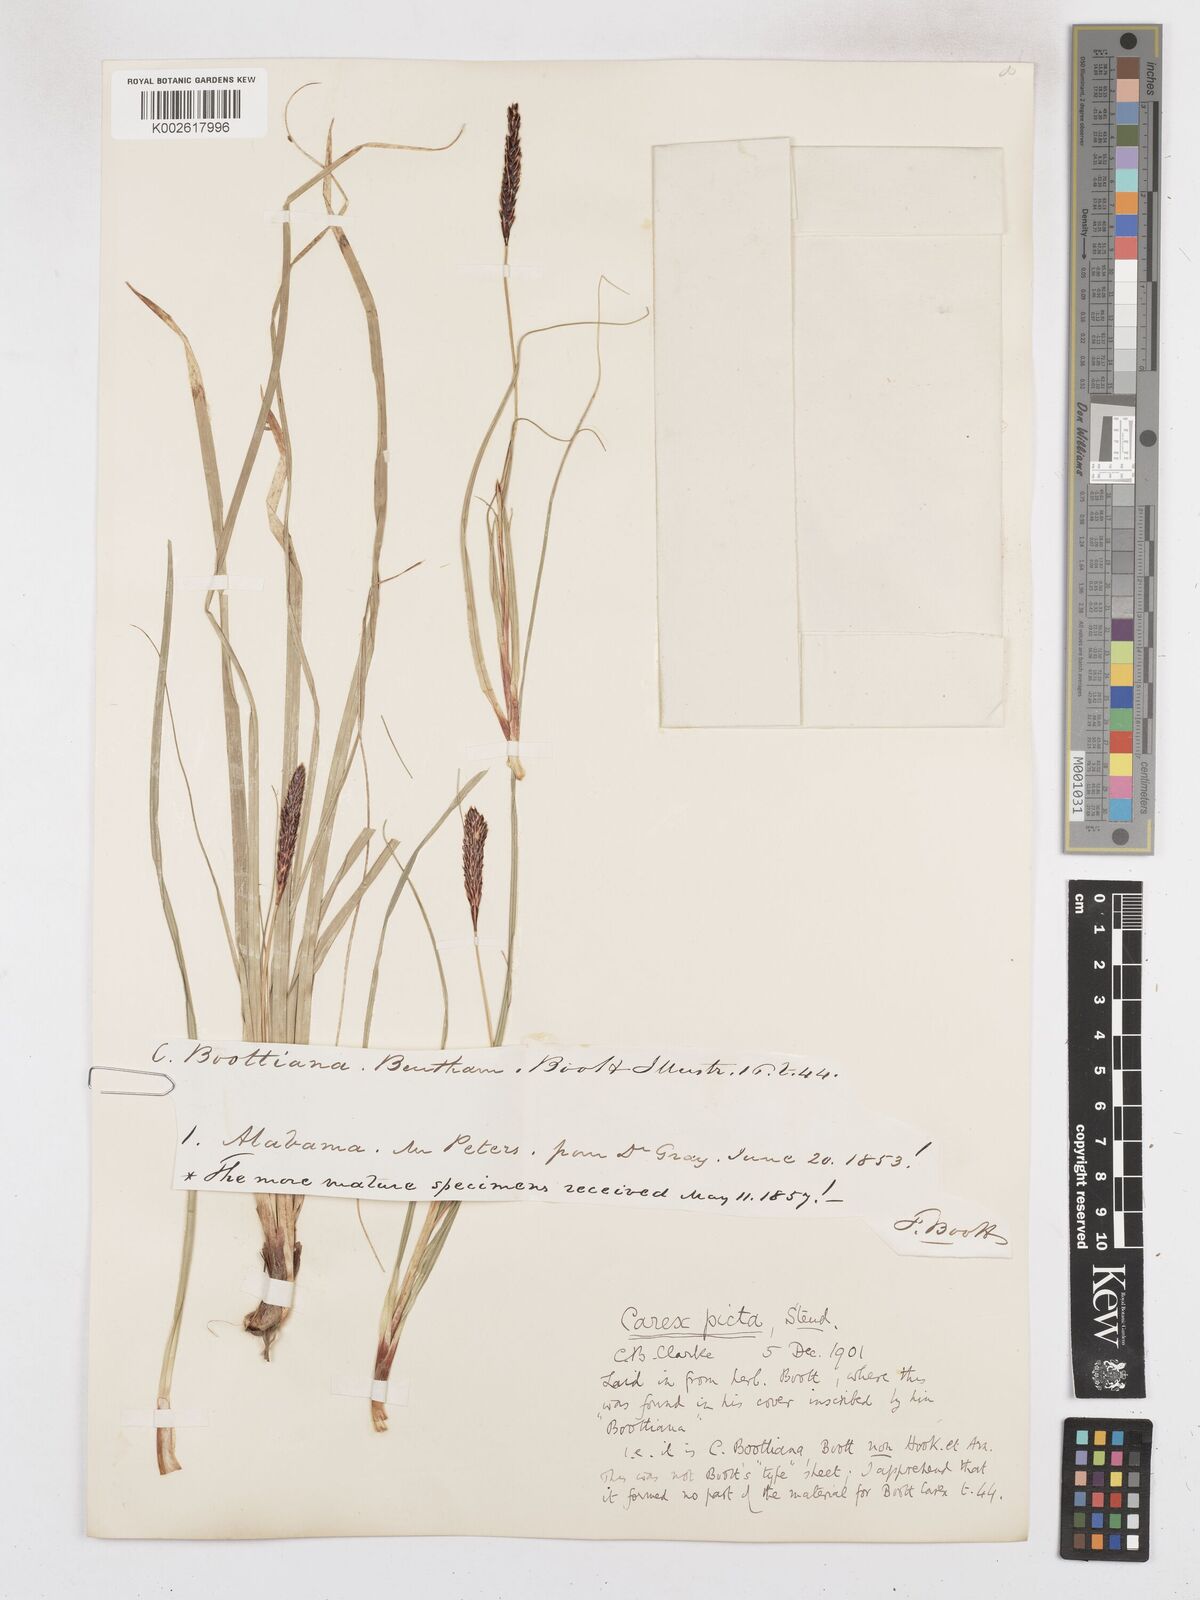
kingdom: Plantae
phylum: Tracheophyta
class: Liliopsida
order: Poales
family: Cyperaceae
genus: Carex
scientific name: Carex picta
